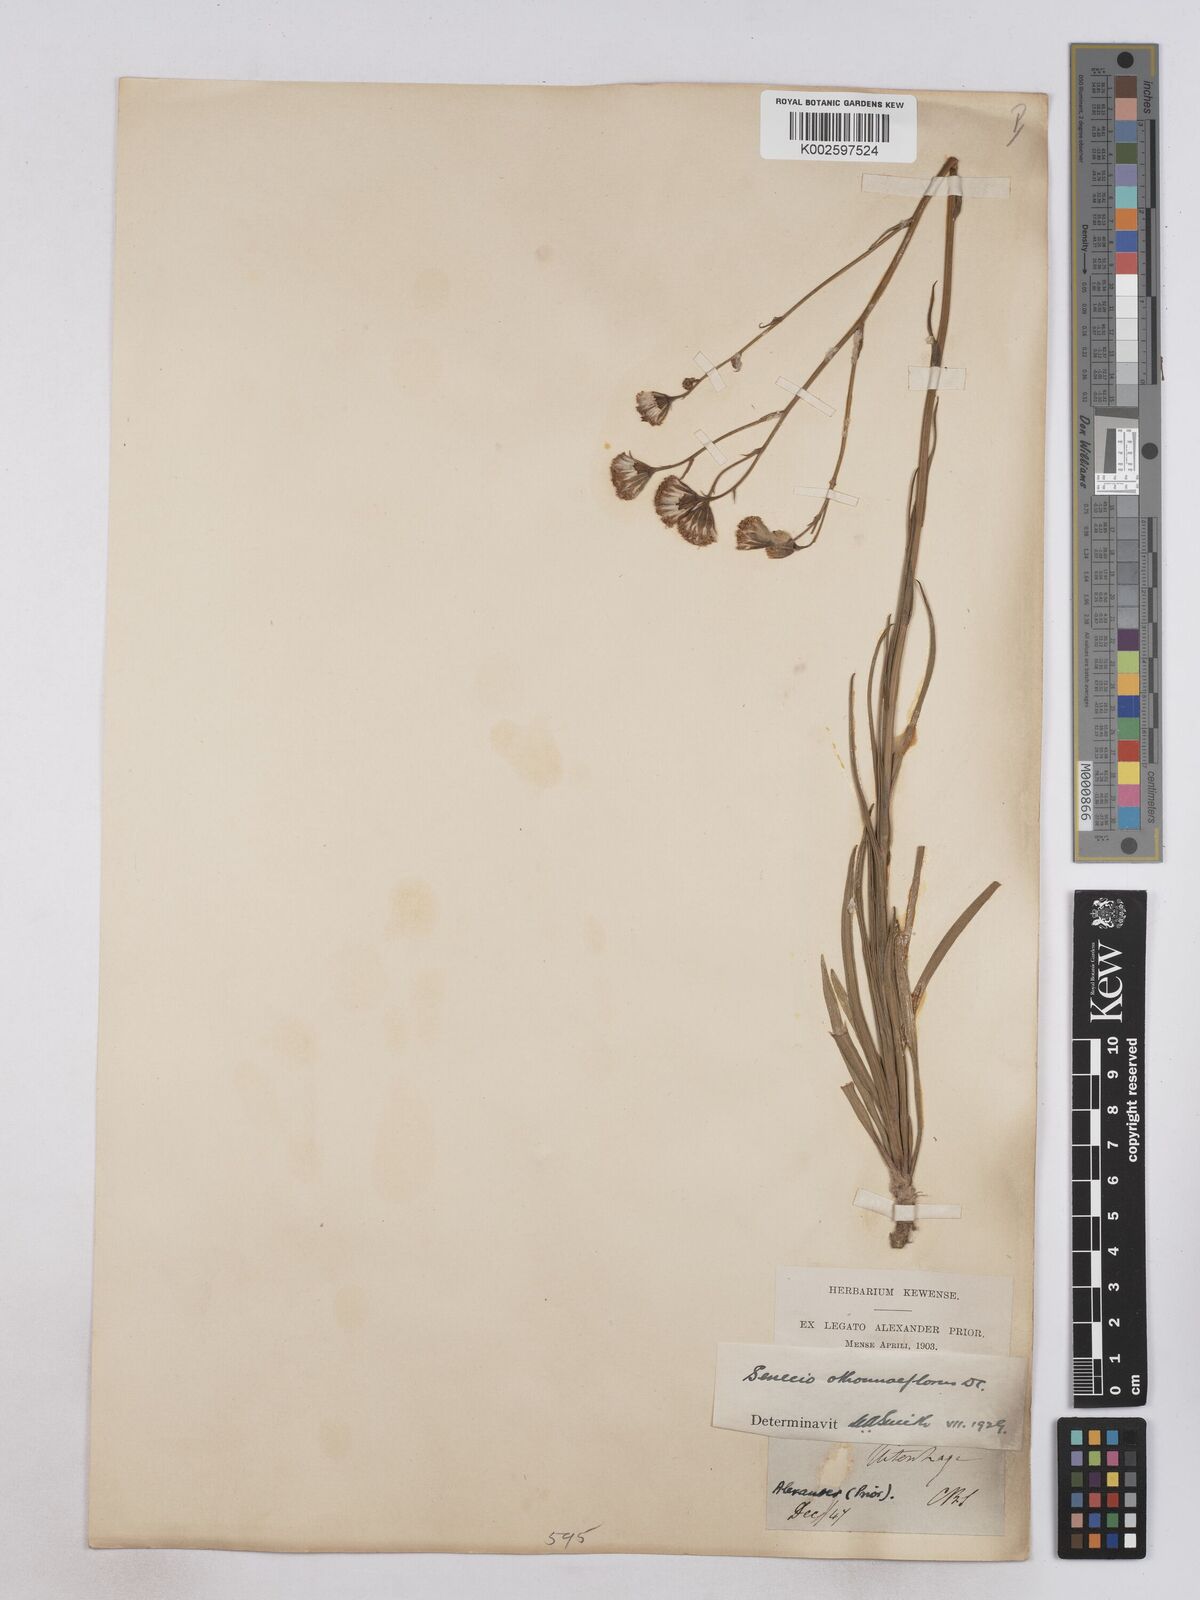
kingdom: Plantae
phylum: Tracheophyta
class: Magnoliopsida
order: Asterales
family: Asteraceae
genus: Senecio
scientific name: Senecio othonniflorus
